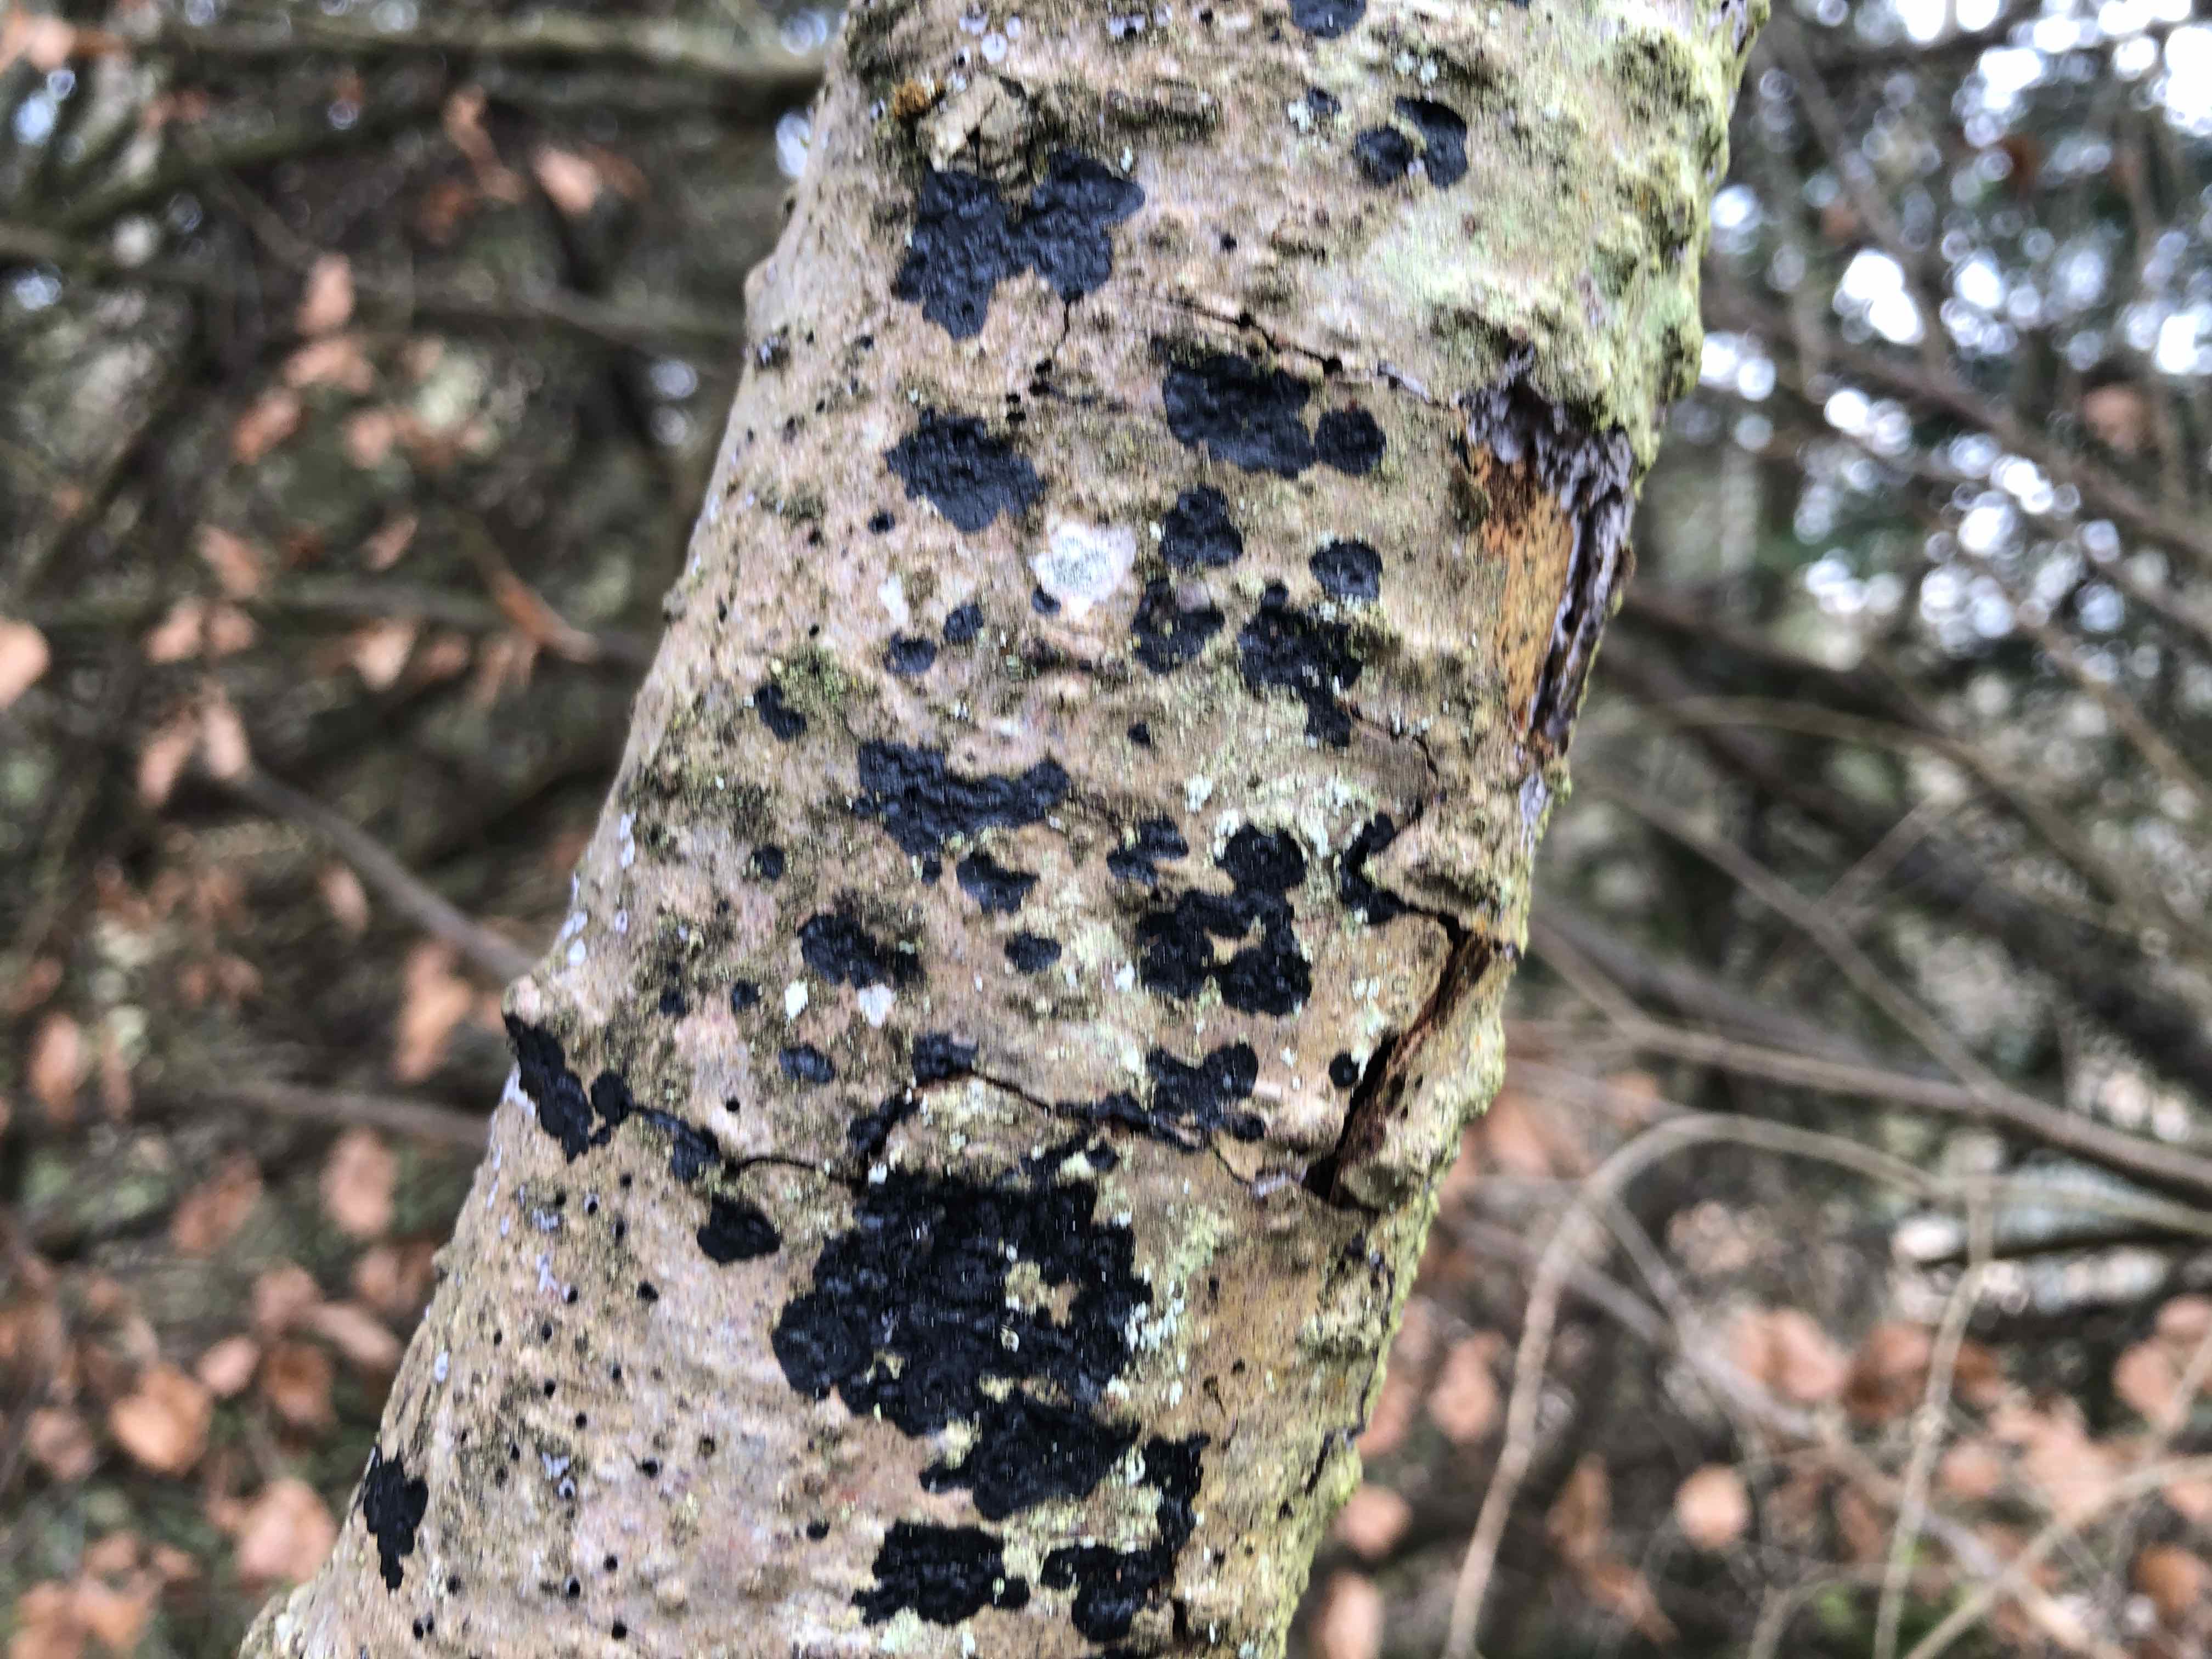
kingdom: Fungi
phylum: Basidiomycota
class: Agaricomycetes
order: Auriculariales
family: Auriculariaceae
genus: Exidia
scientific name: Exidia pithya
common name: gran-bævretop
